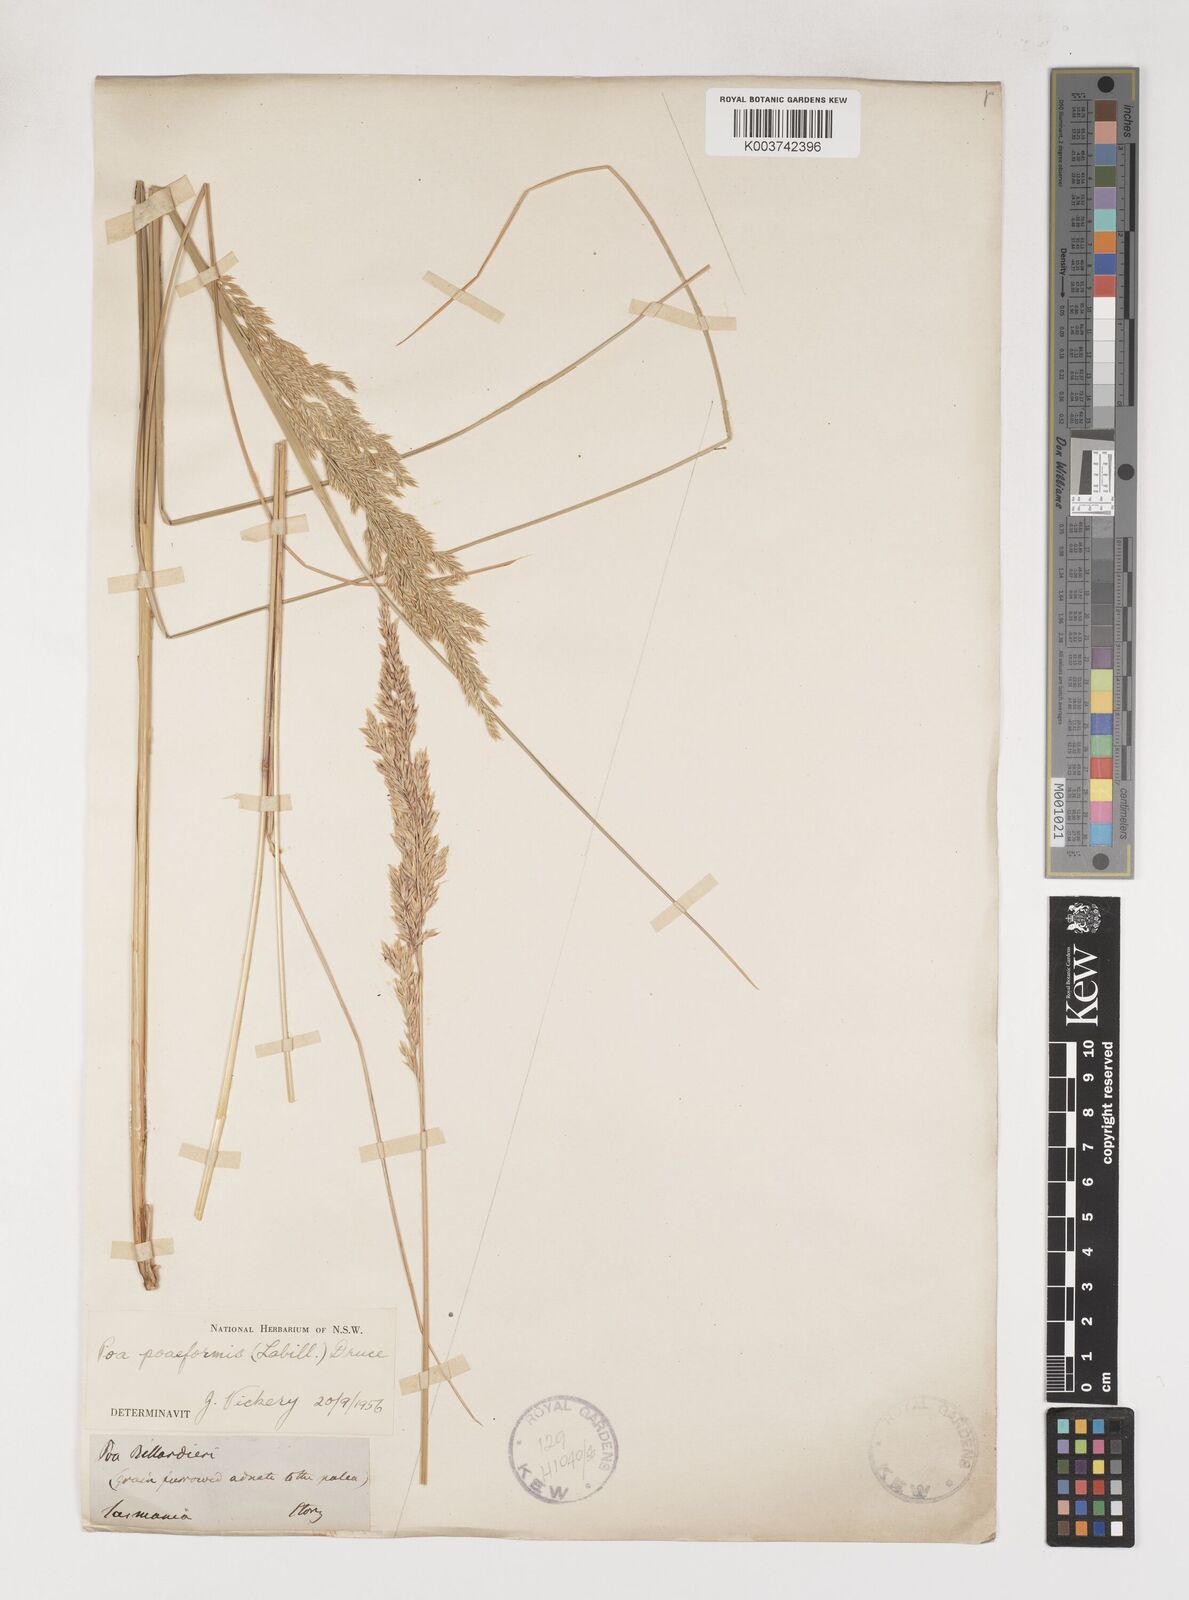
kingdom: Plantae
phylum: Tracheophyta
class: Liliopsida
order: Poales
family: Poaceae
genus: Poa
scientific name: Poa poiformis
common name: Tussock poa
